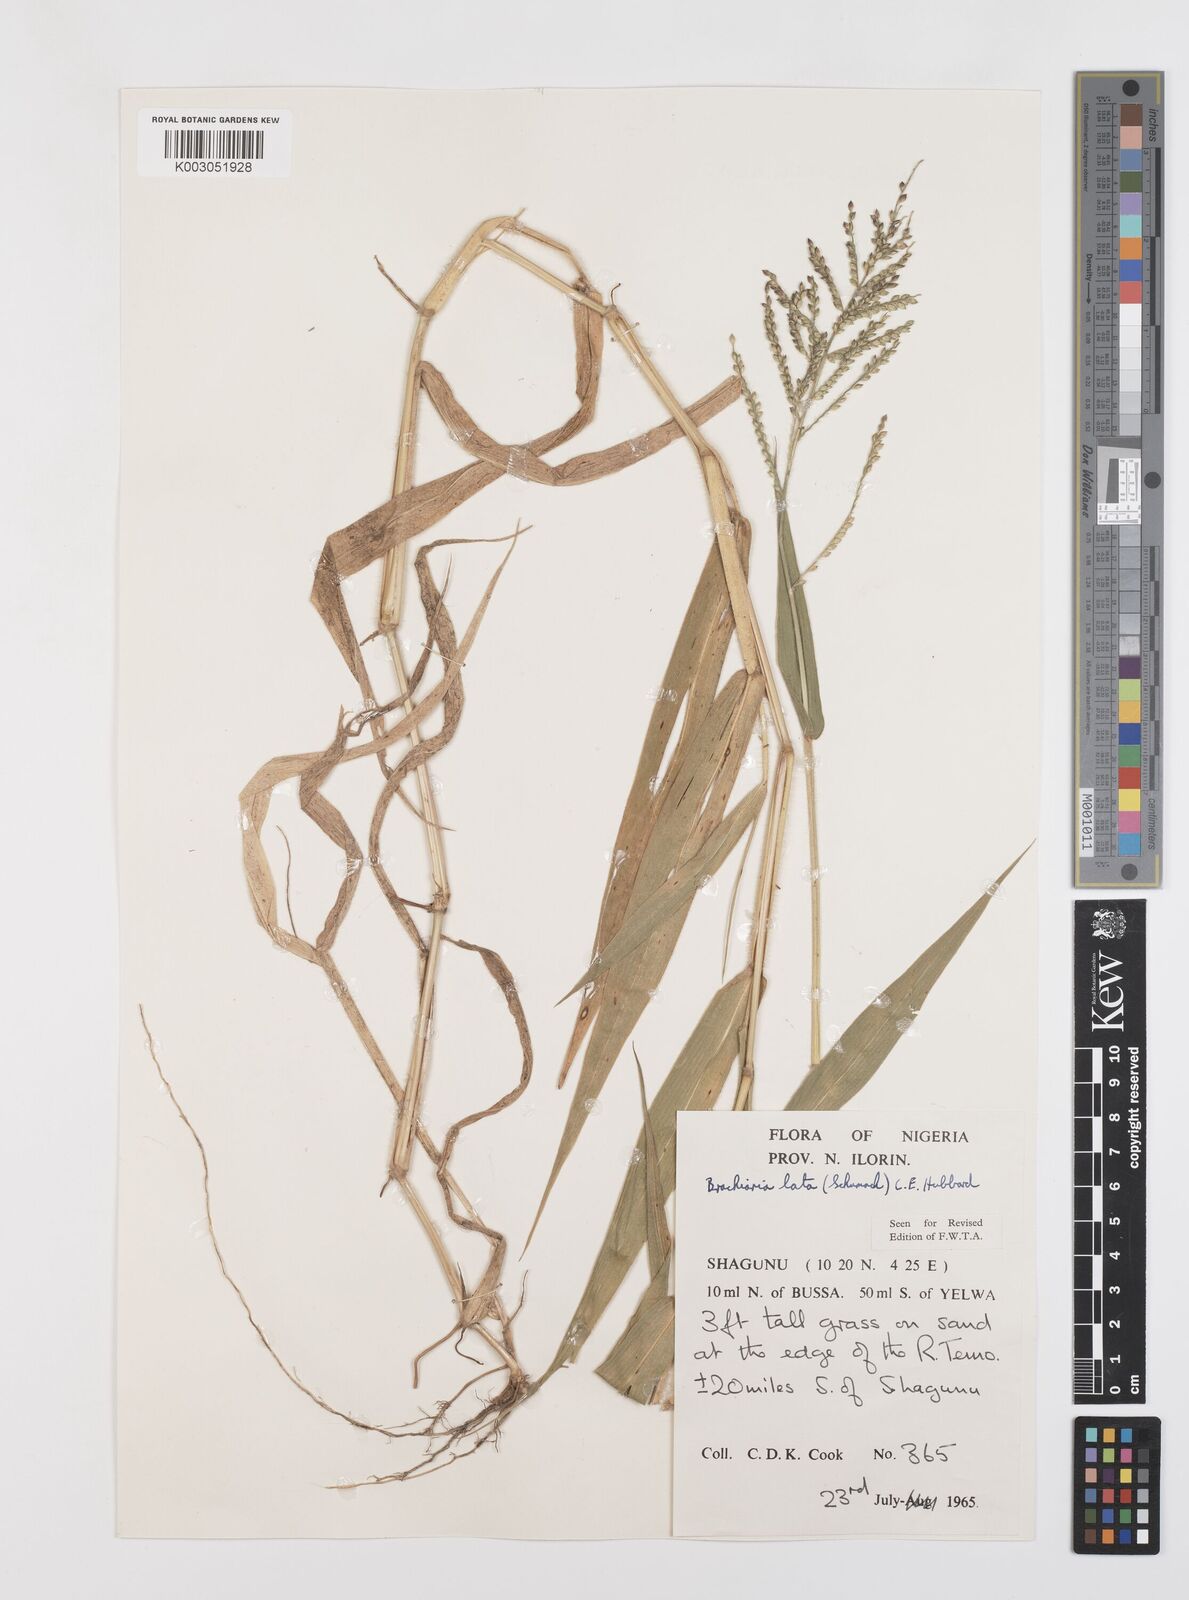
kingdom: Plantae
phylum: Tracheophyta
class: Liliopsida
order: Poales
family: Poaceae
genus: Urochloa
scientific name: Urochloa lata
